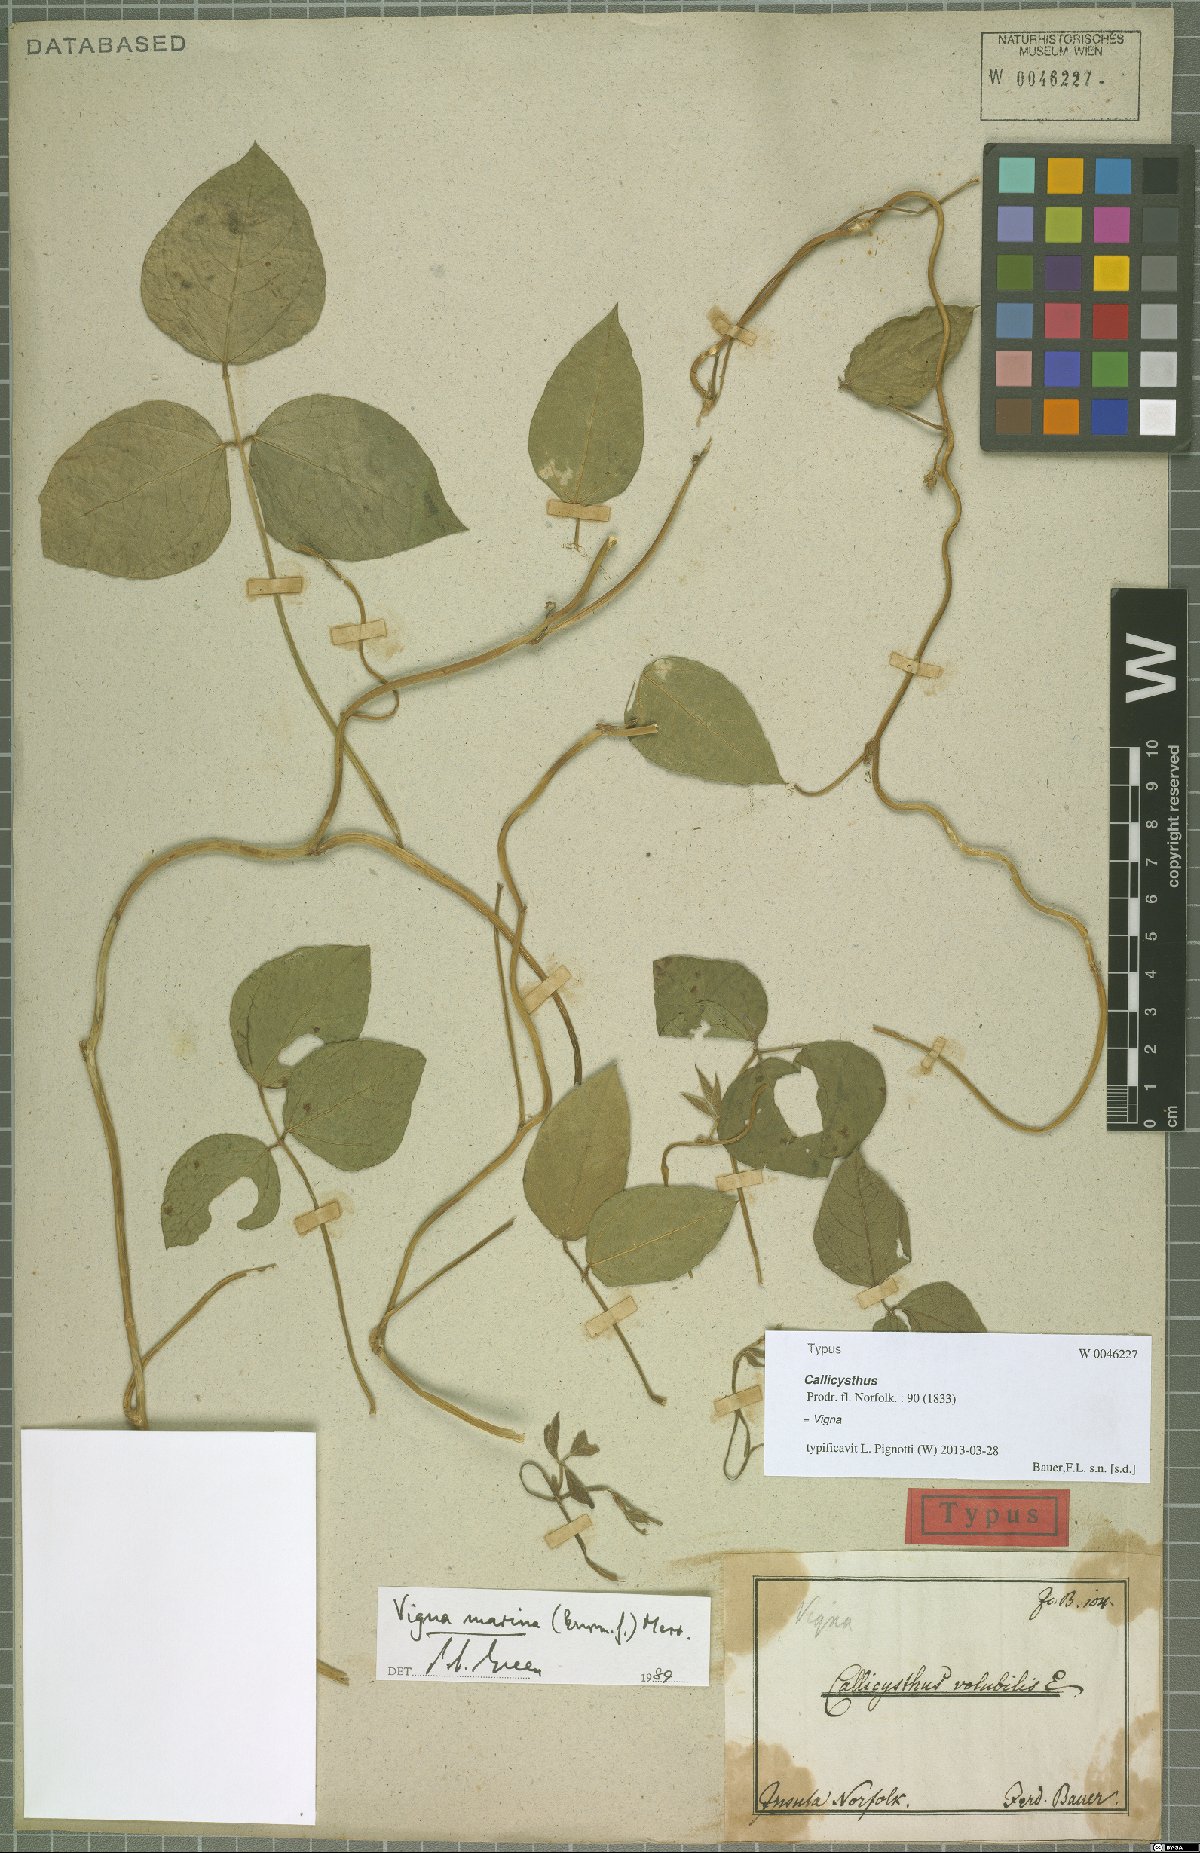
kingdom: Plantae
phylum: Tracheophyta
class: Magnoliopsida
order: Fabales
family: Fabaceae
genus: Vigna
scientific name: Vigna marina
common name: Dune-bean
